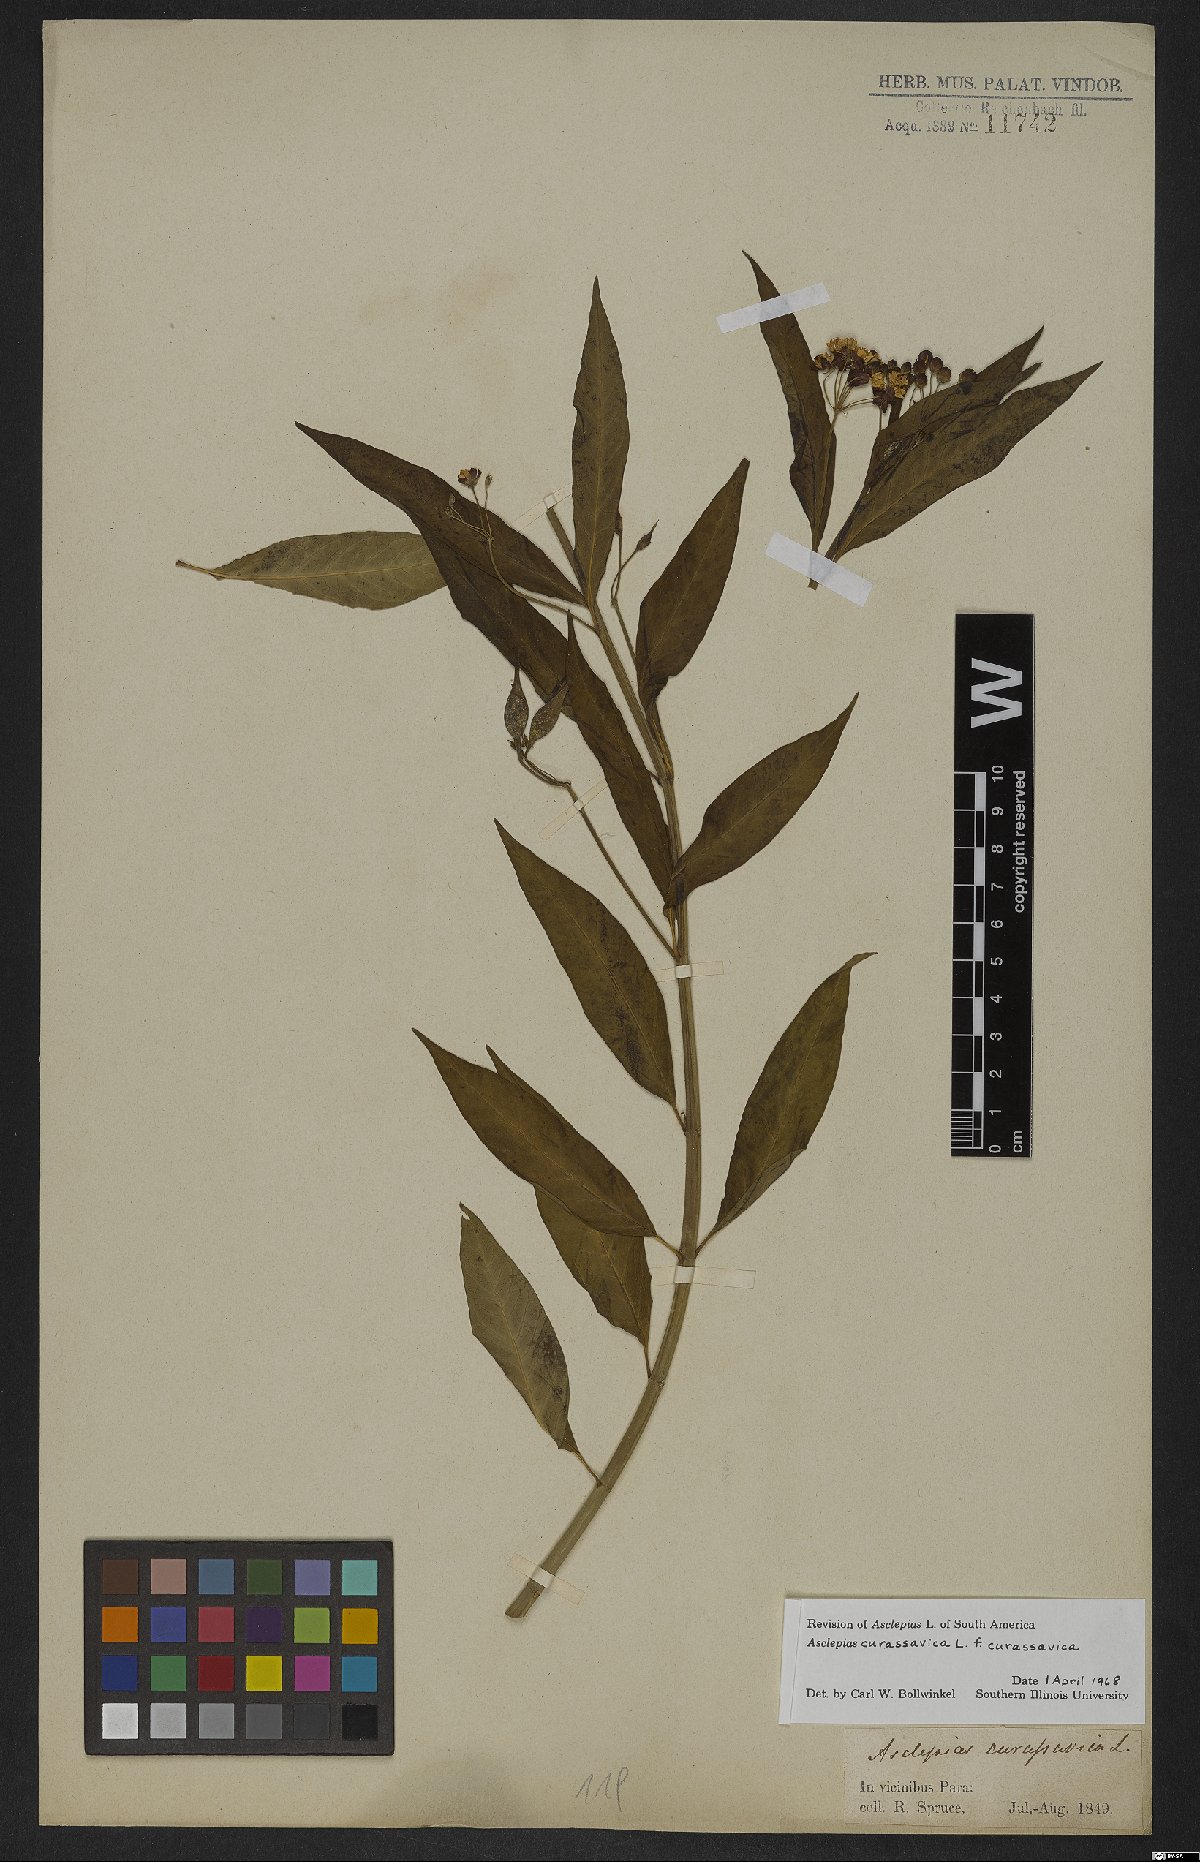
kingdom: Plantae
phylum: Tracheophyta
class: Magnoliopsida
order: Gentianales
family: Apocynaceae
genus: Asclepias
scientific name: Asclepias curassavica
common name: Bloodflower
